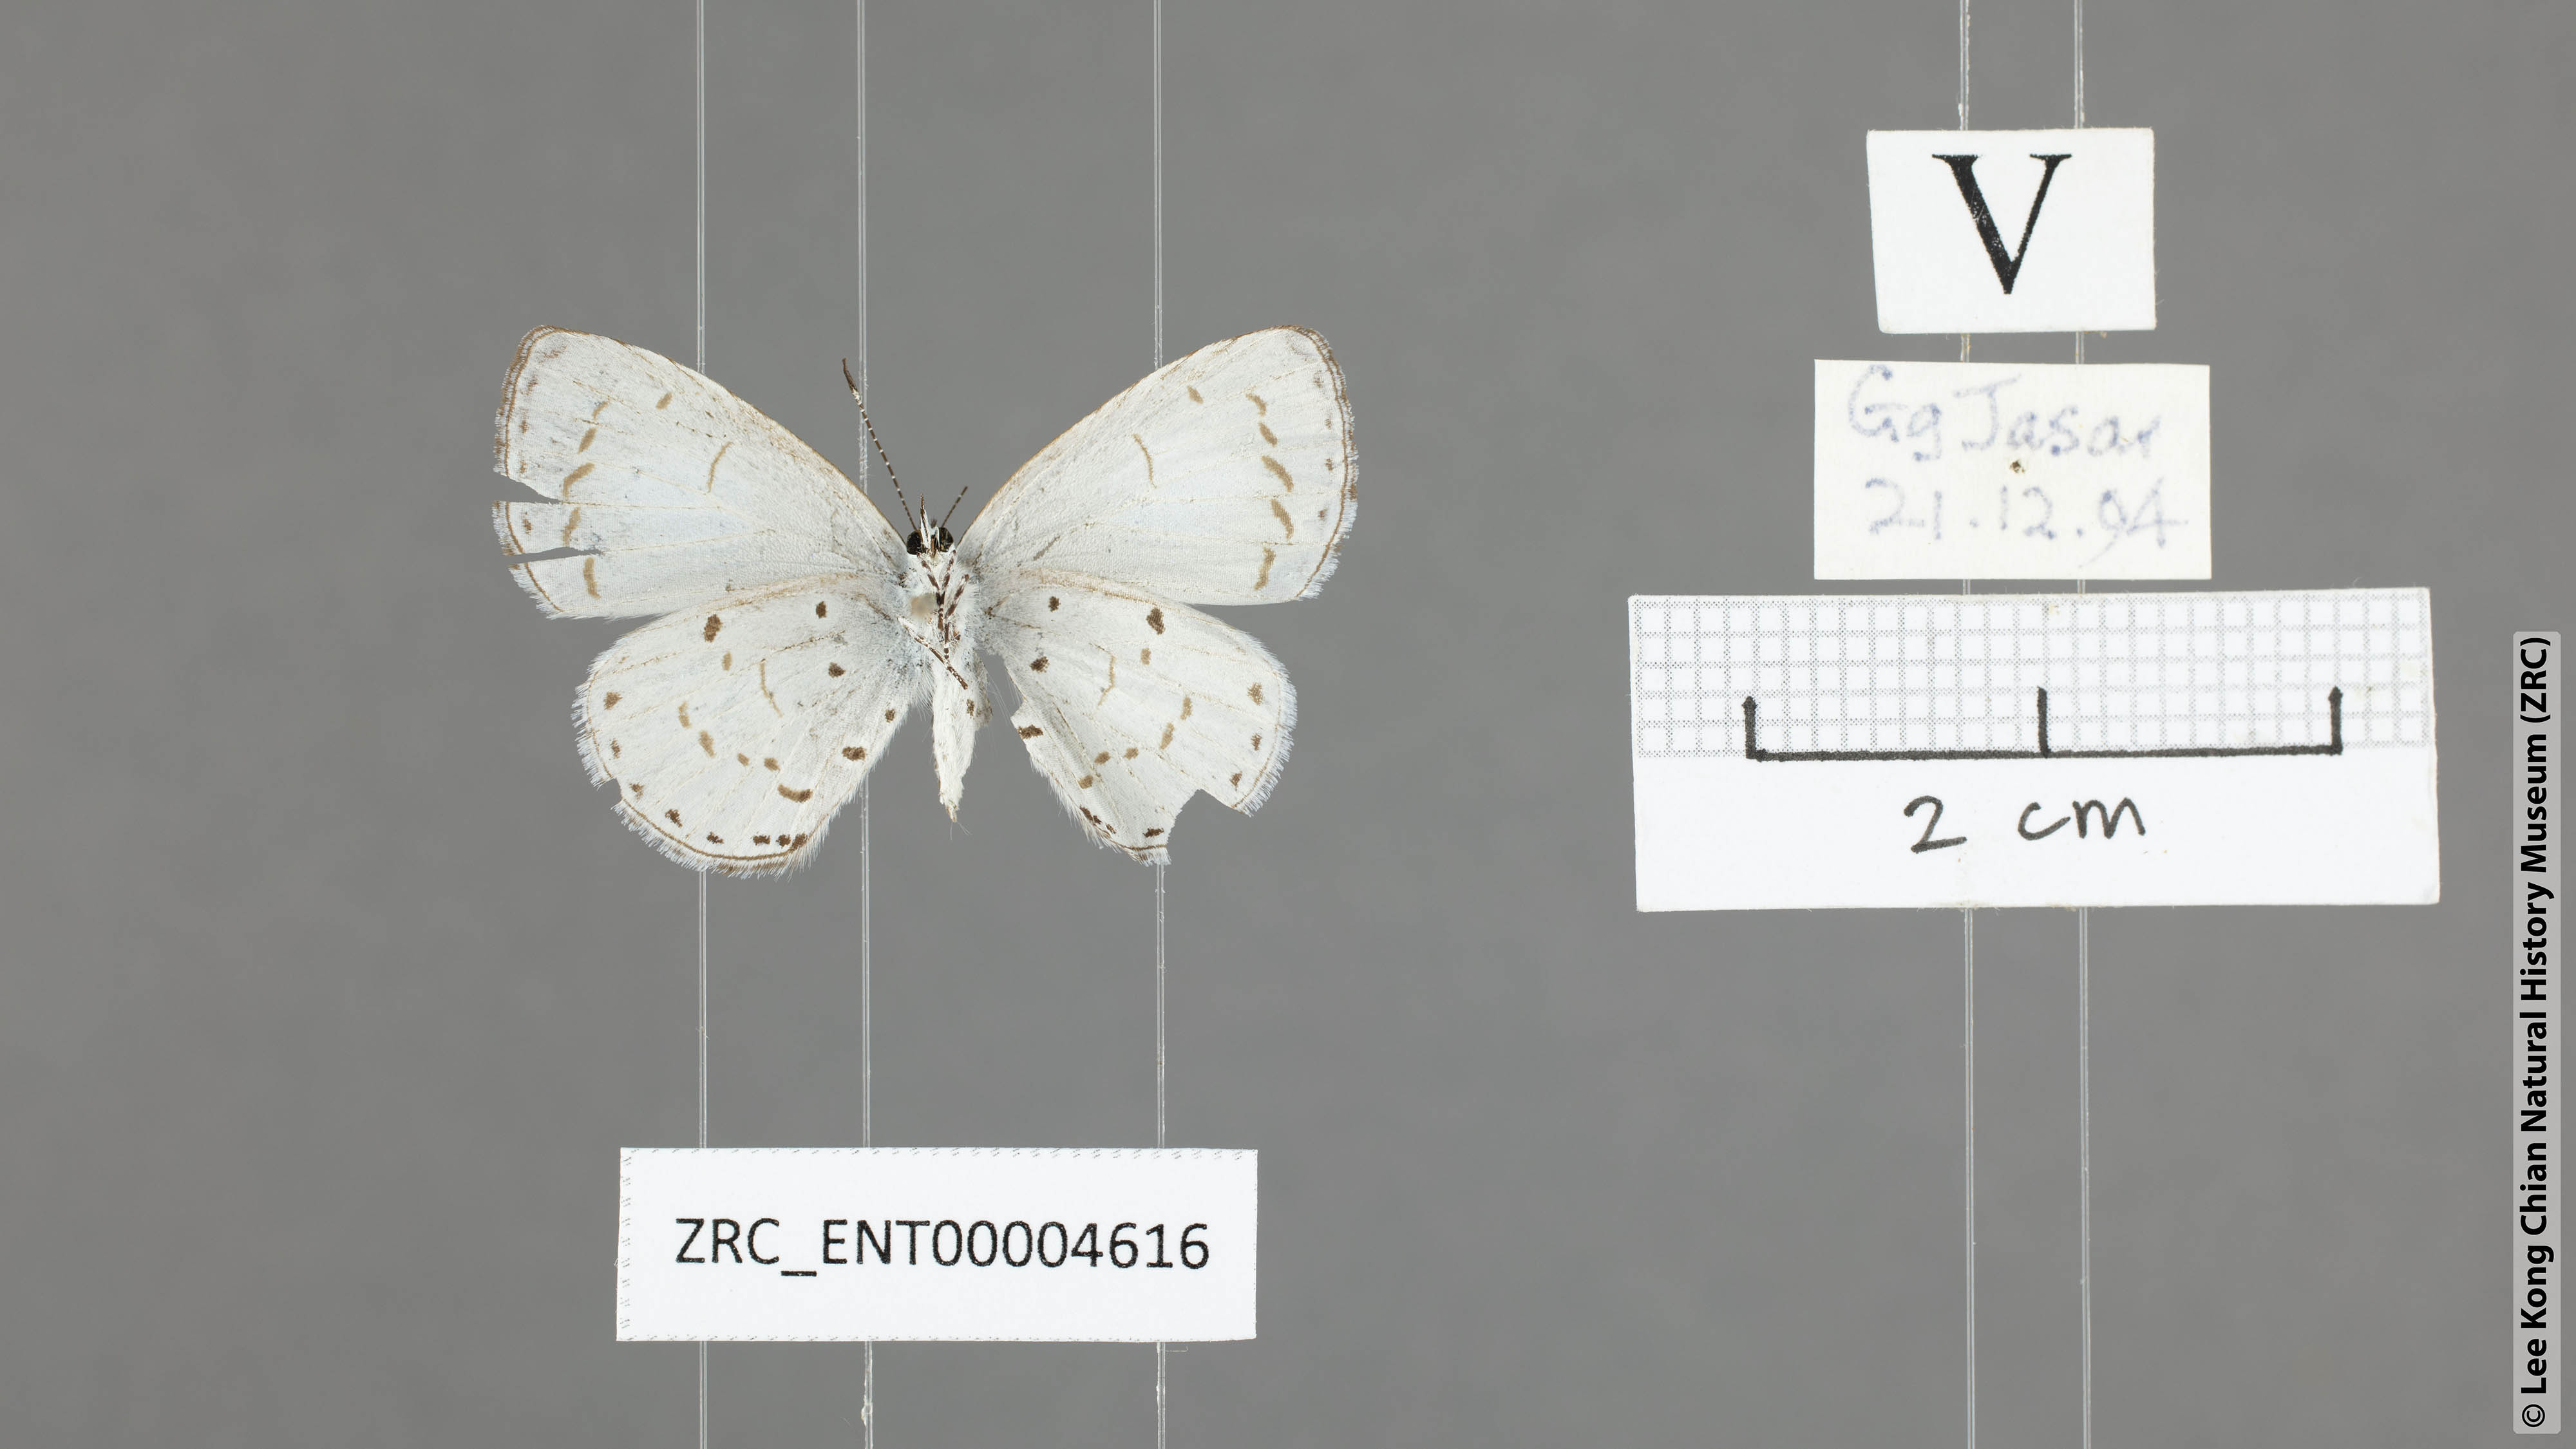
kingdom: Animalia
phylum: Arthropoda
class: Insecta
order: Lepidoptera
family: Lycaenidae
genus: Udara
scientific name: Udara camenae
